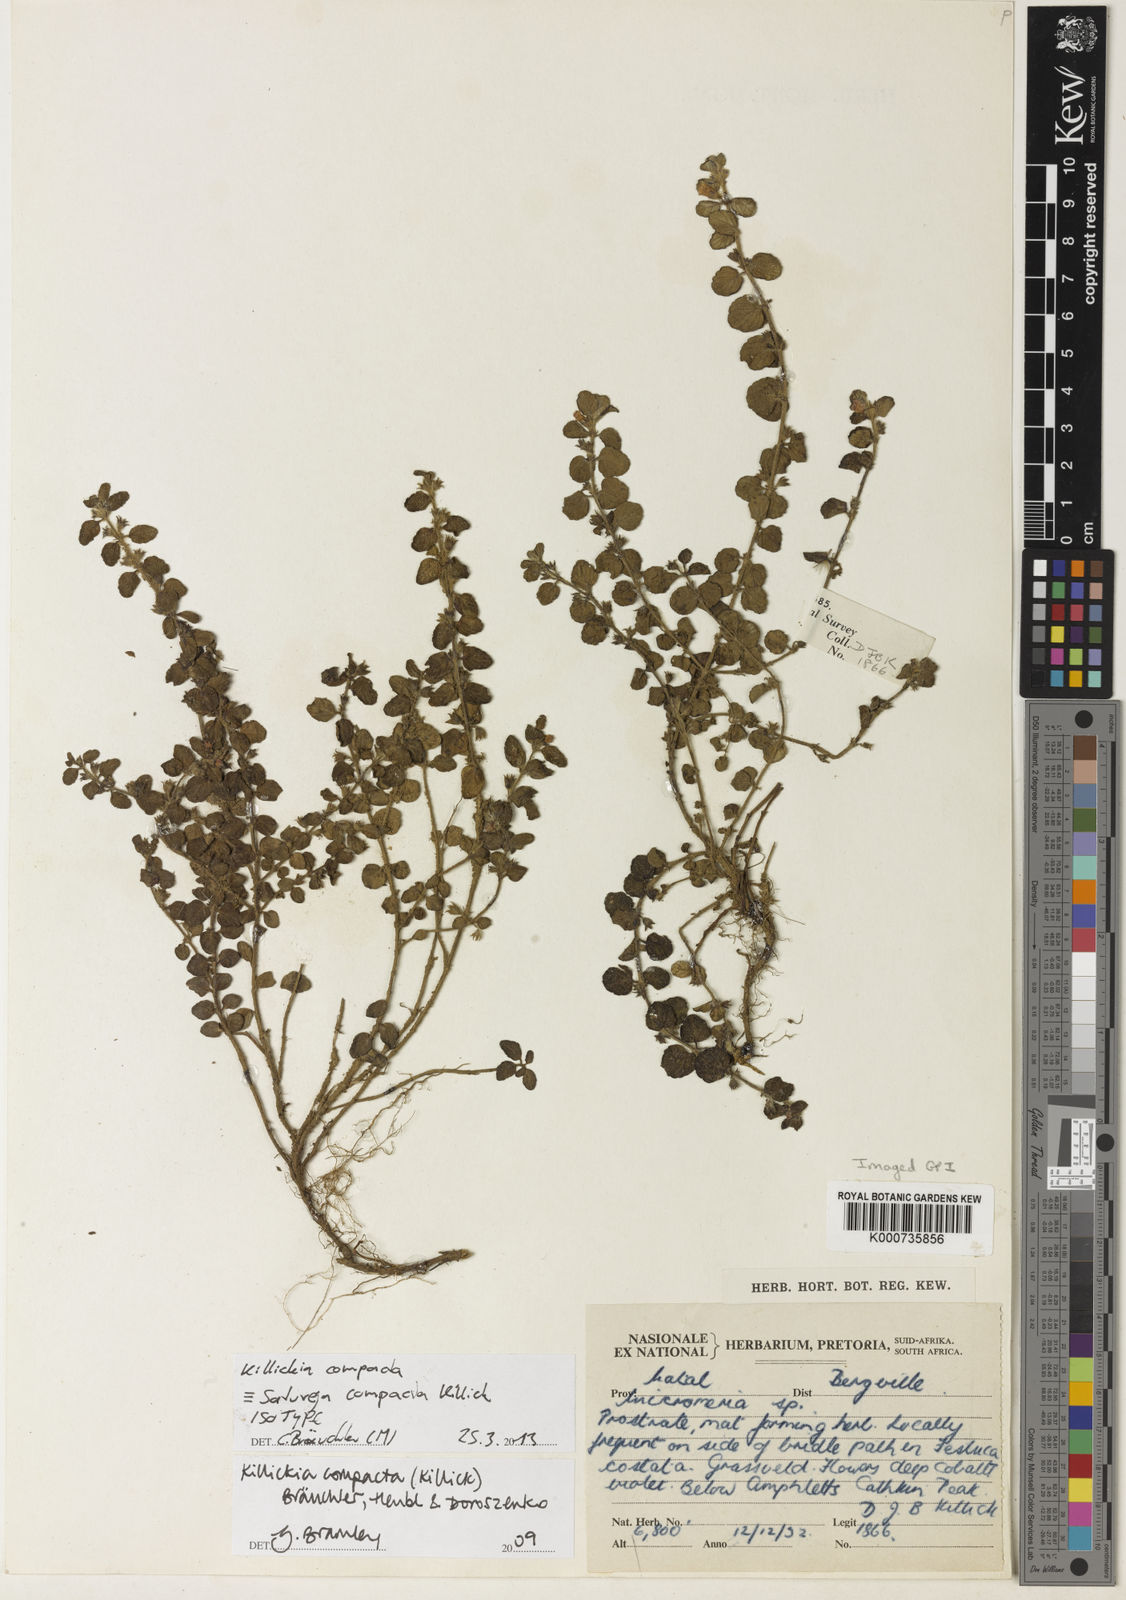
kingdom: Plantae
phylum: Tracheophyta
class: Magnoliopsida
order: Lamiales
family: Lamiaceae
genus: Killickia
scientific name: Killickia
